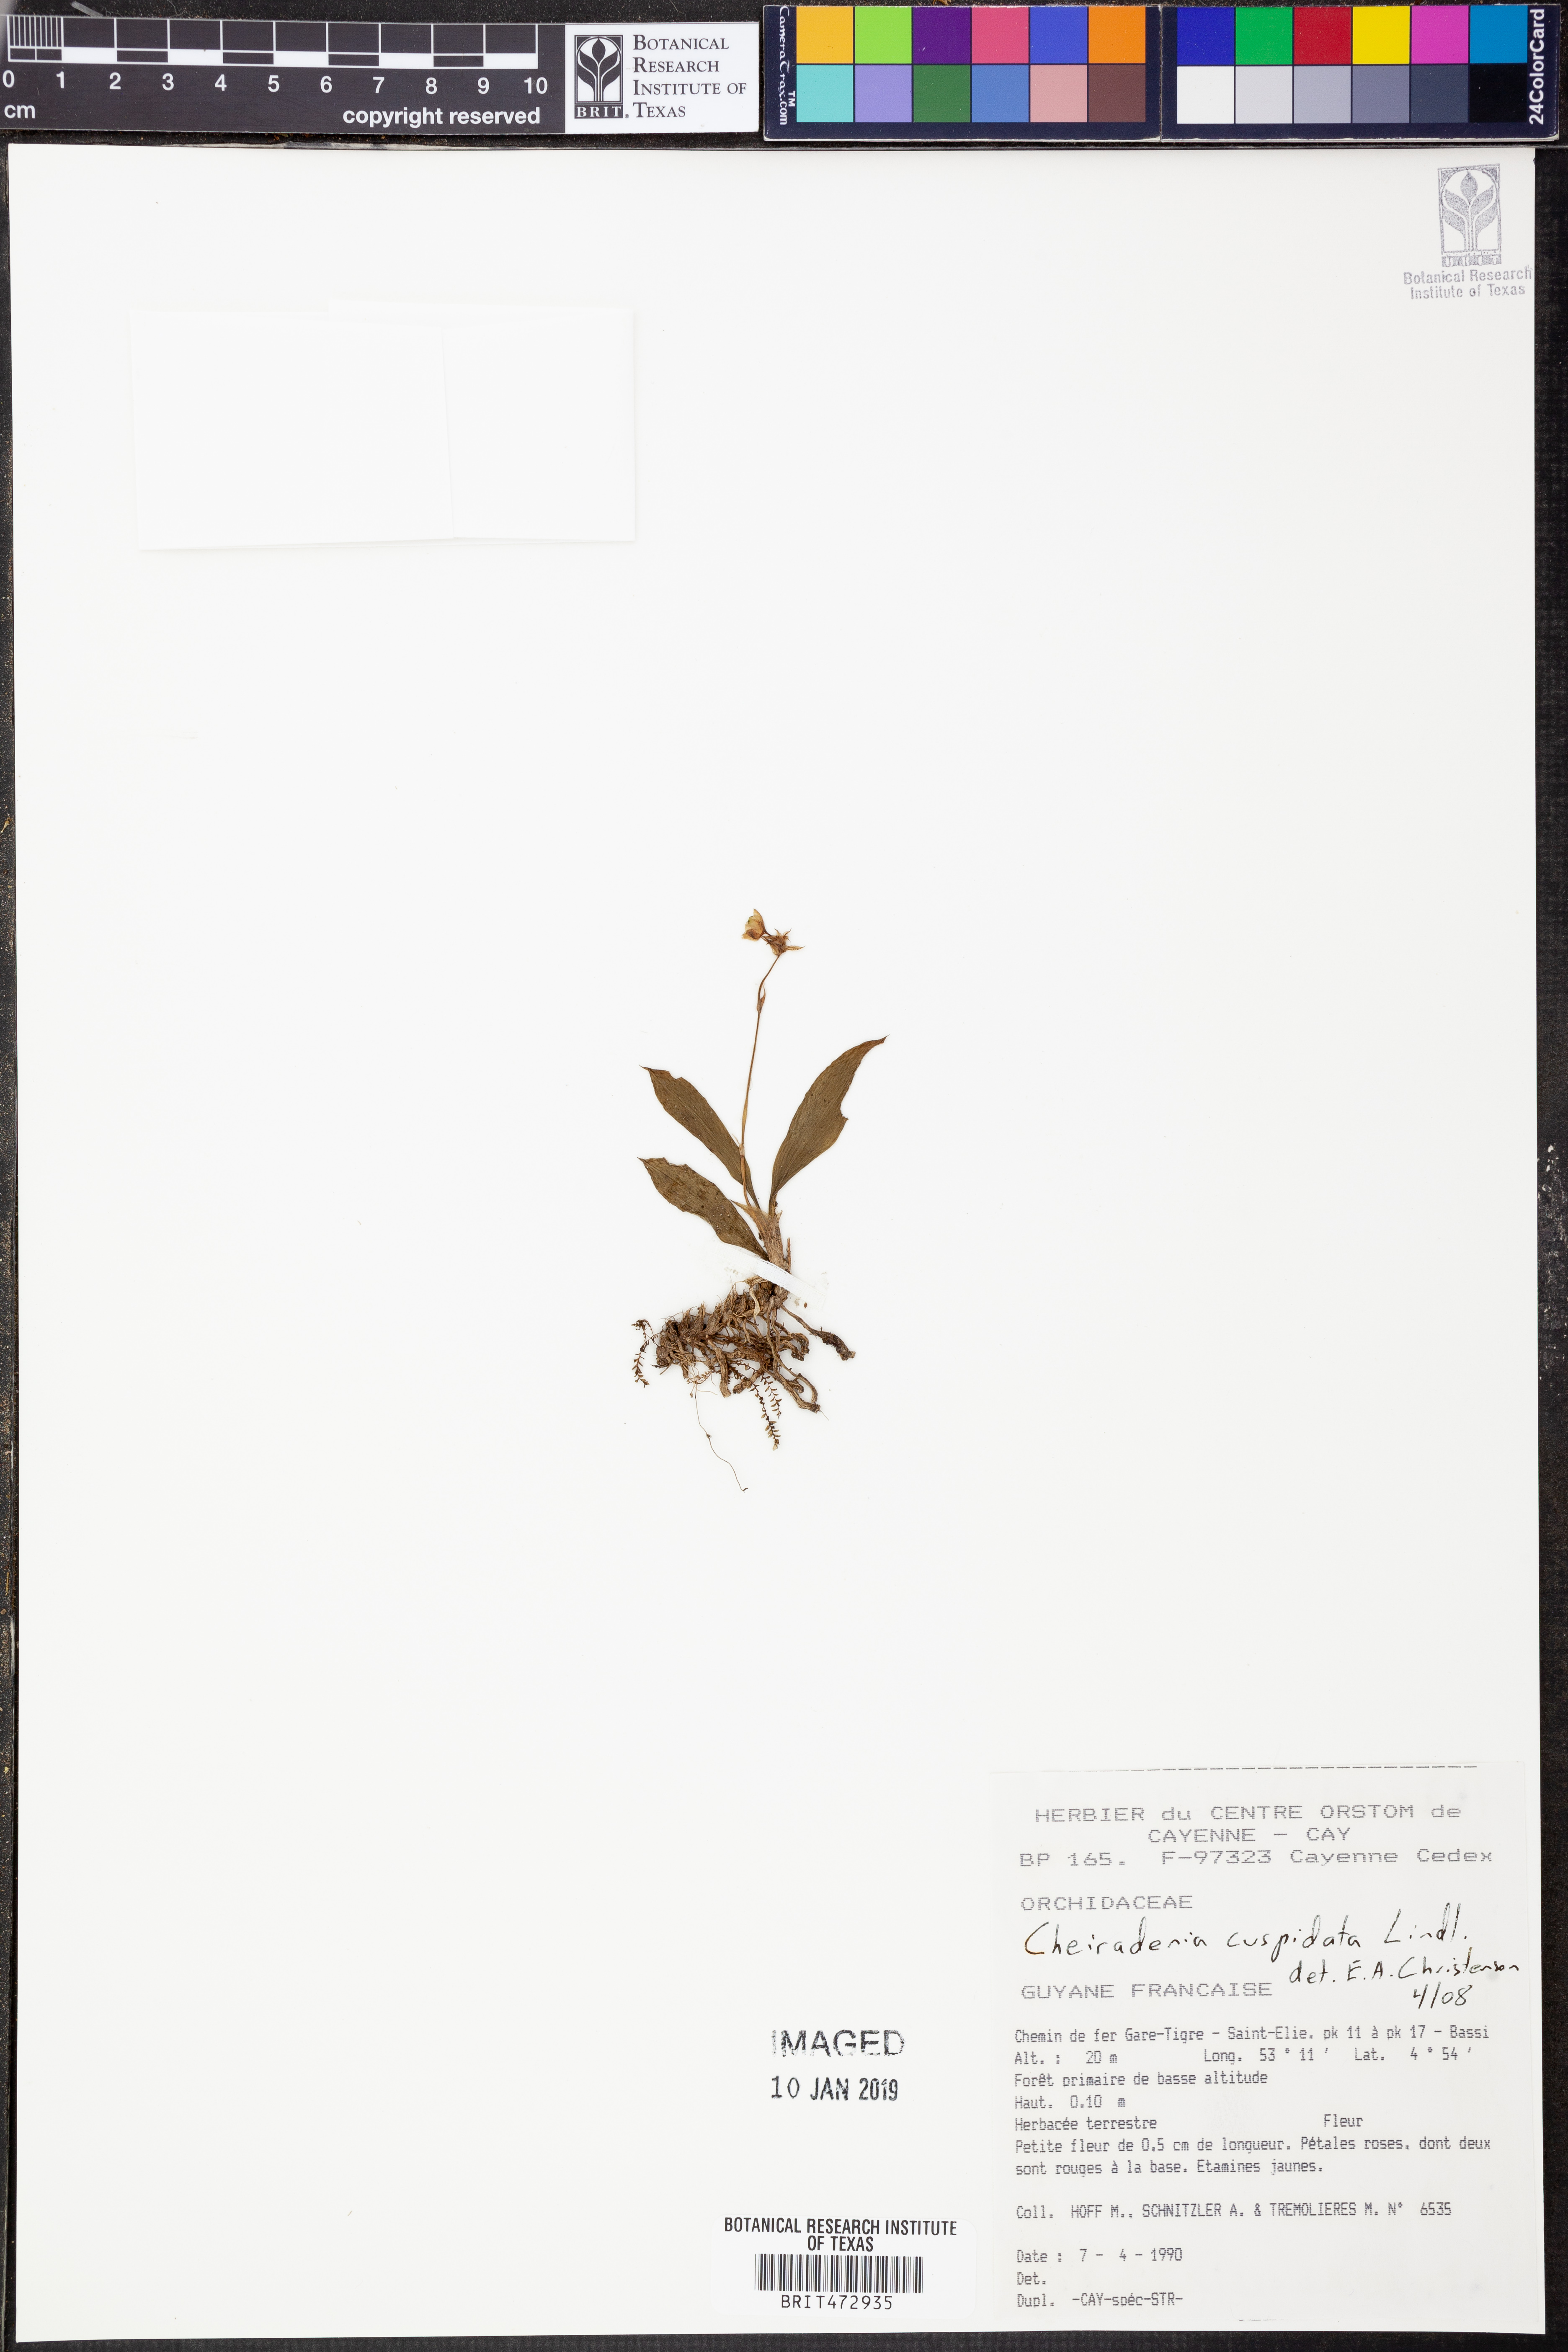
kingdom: Plantae
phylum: Tracheophyta
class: Liliopsida
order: Asparagales
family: Orchidaceae
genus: Cheiradenia
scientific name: Cheiradenia cuspidata
